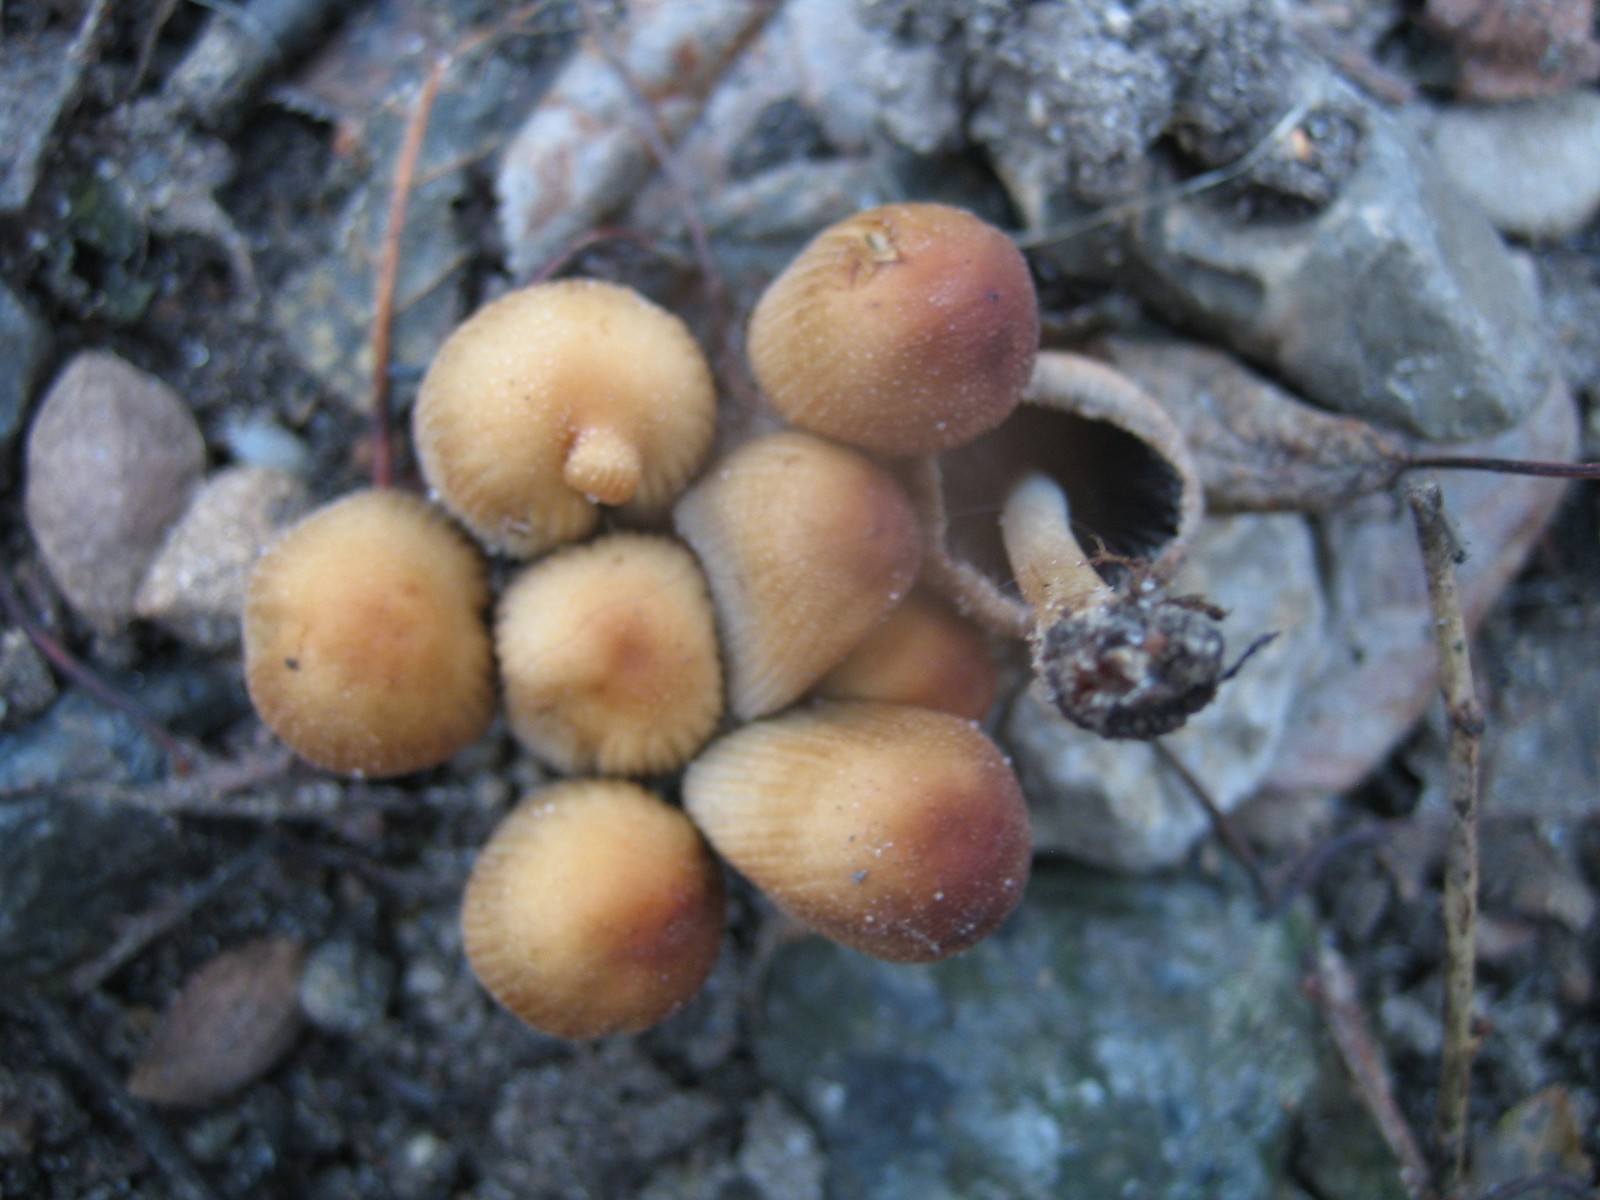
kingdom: Fungi
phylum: Basidiomycota
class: Agaricomycetes
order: Agaricales
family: Psathyrellaceae
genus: Coprinellus
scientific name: Coprinellus micaceus
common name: glimmer-blækhat
